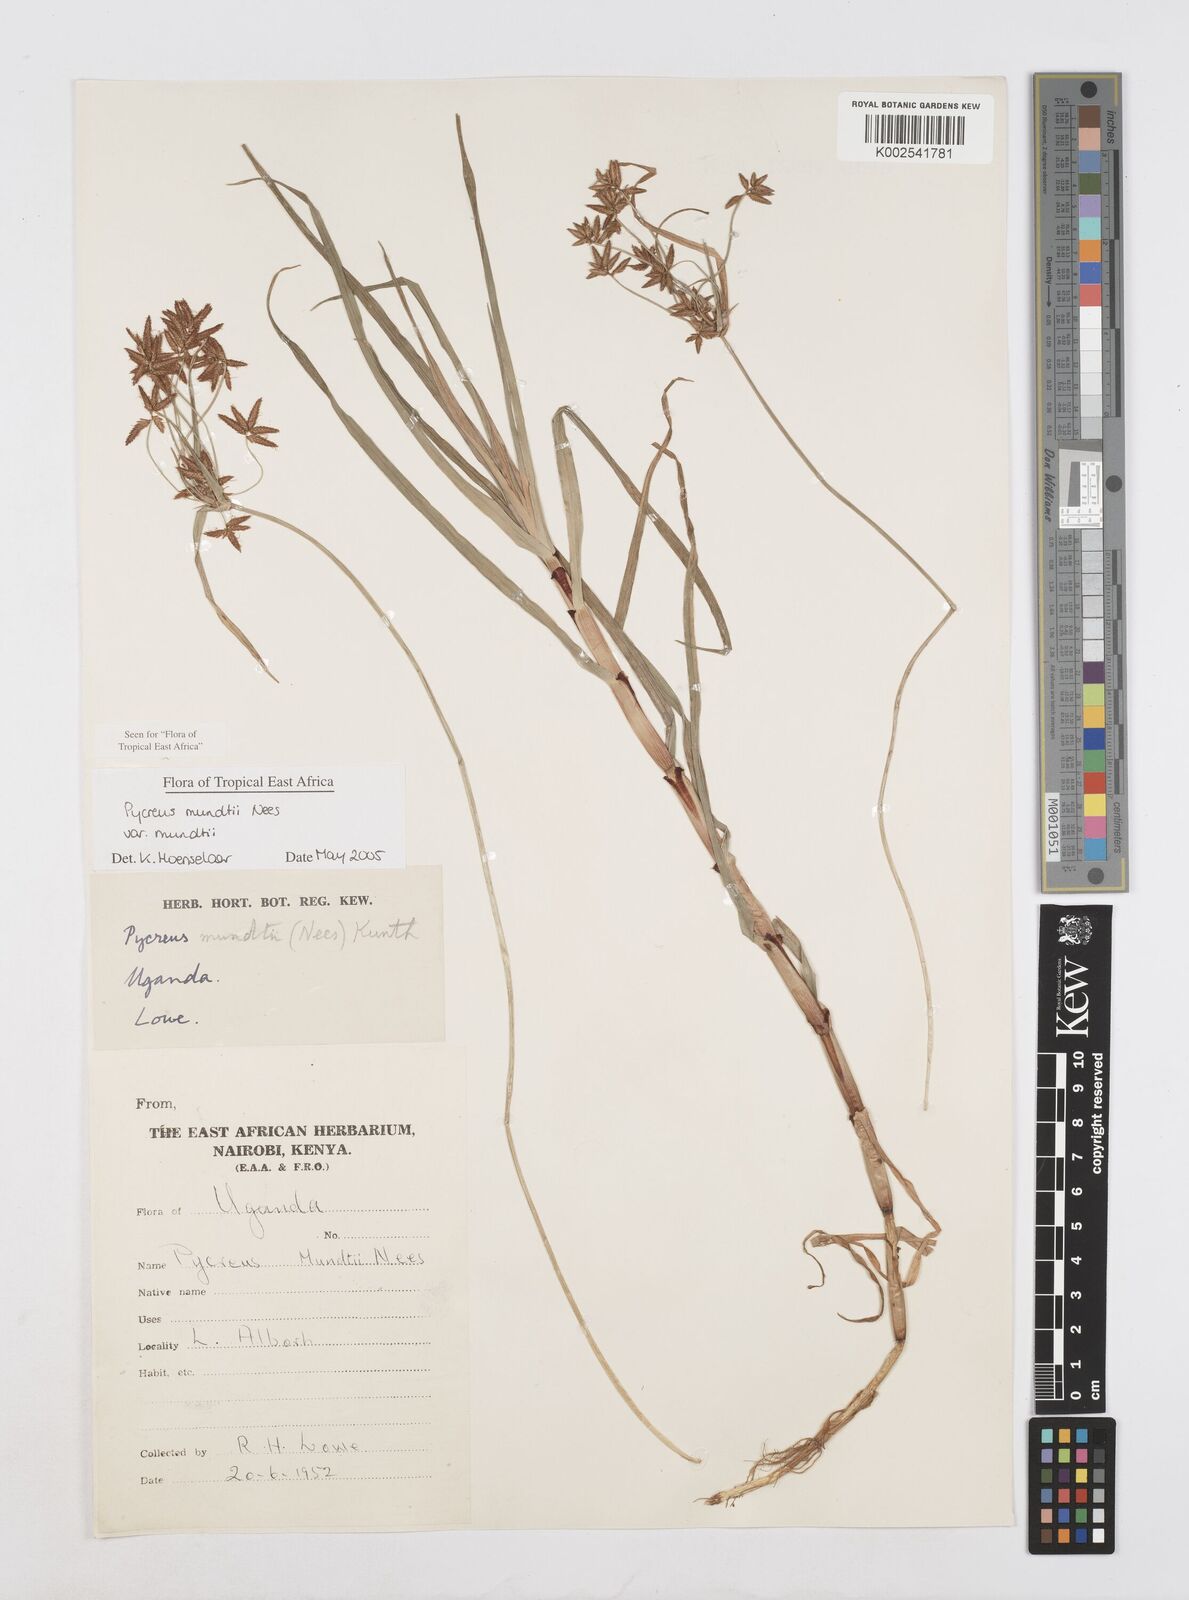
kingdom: Plantae
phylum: Tracheophyta
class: Liliopsida
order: Poales
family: Cyperaceae
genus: Cyperus
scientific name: Cyperus mundii
